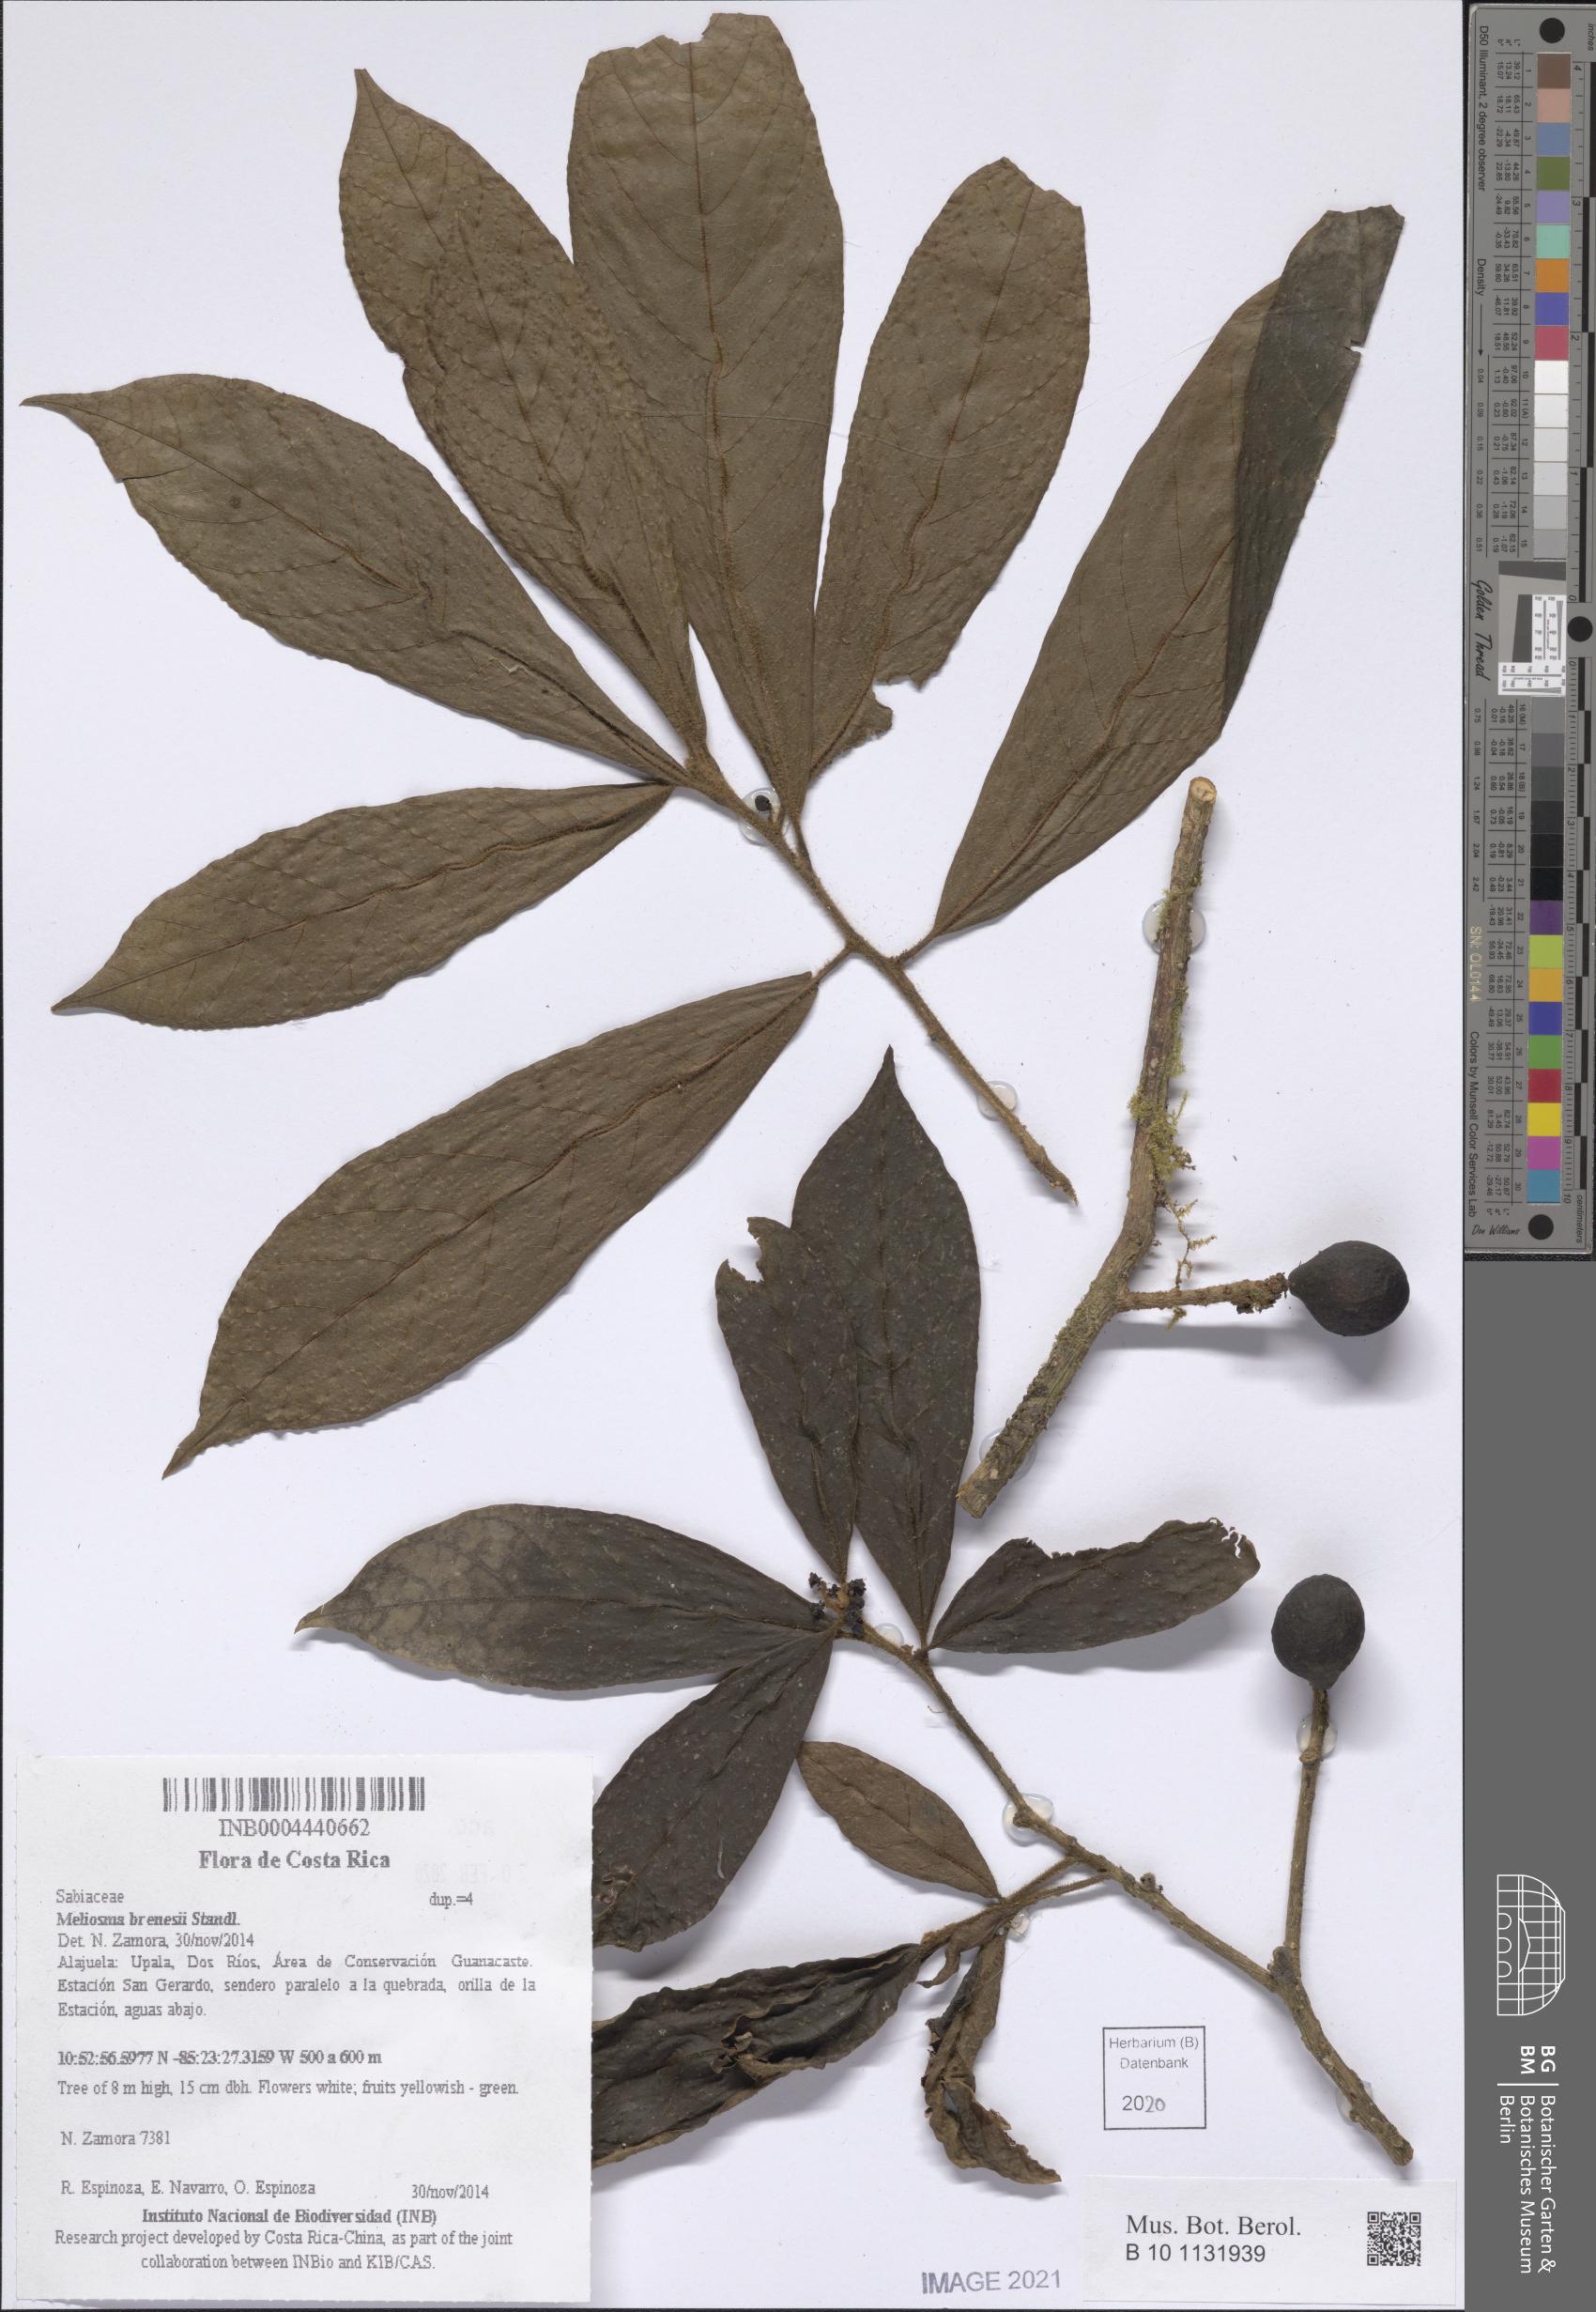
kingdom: Plantae
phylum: Tracheophyta
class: Magnoliopsida
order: Proteales
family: Sabiaceae
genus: Meliosma
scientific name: Meliosma brenesii
